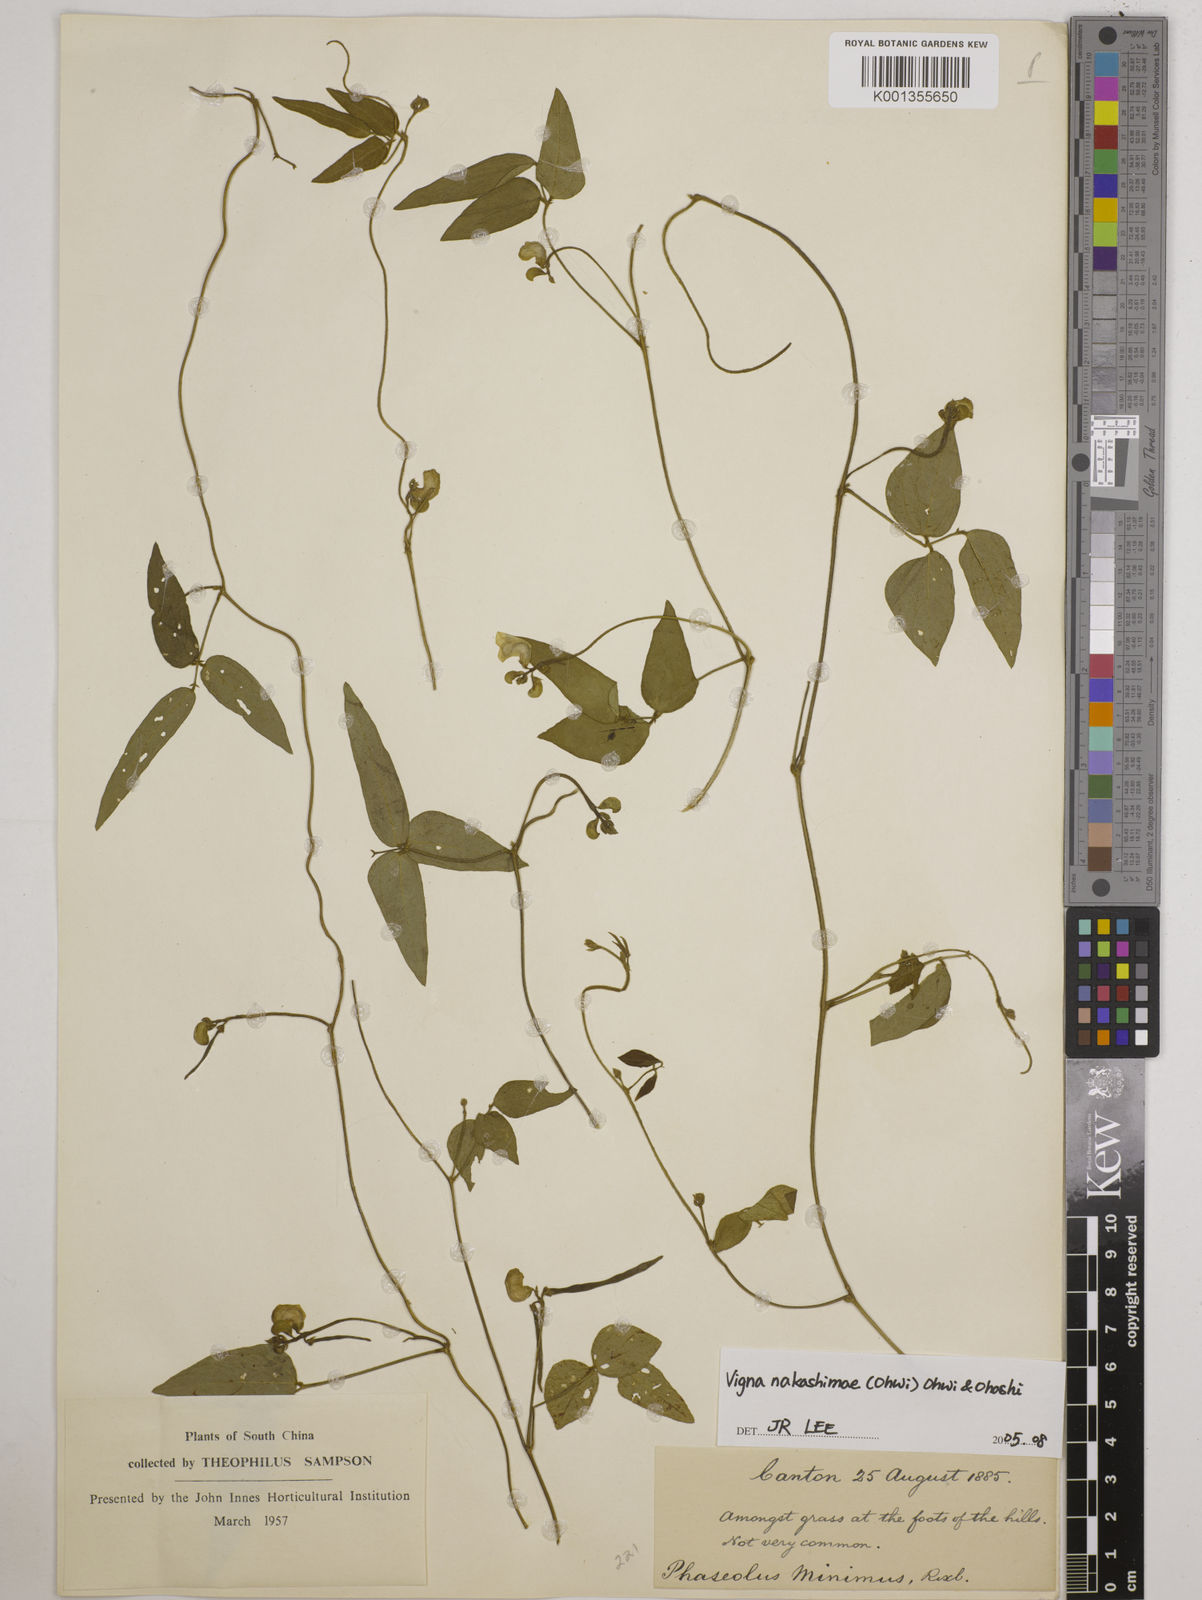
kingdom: Plantae
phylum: Tracheophyta
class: Magnoliopsida
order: Fabales
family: Fabaceae
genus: Vigna
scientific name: Vigna minima
